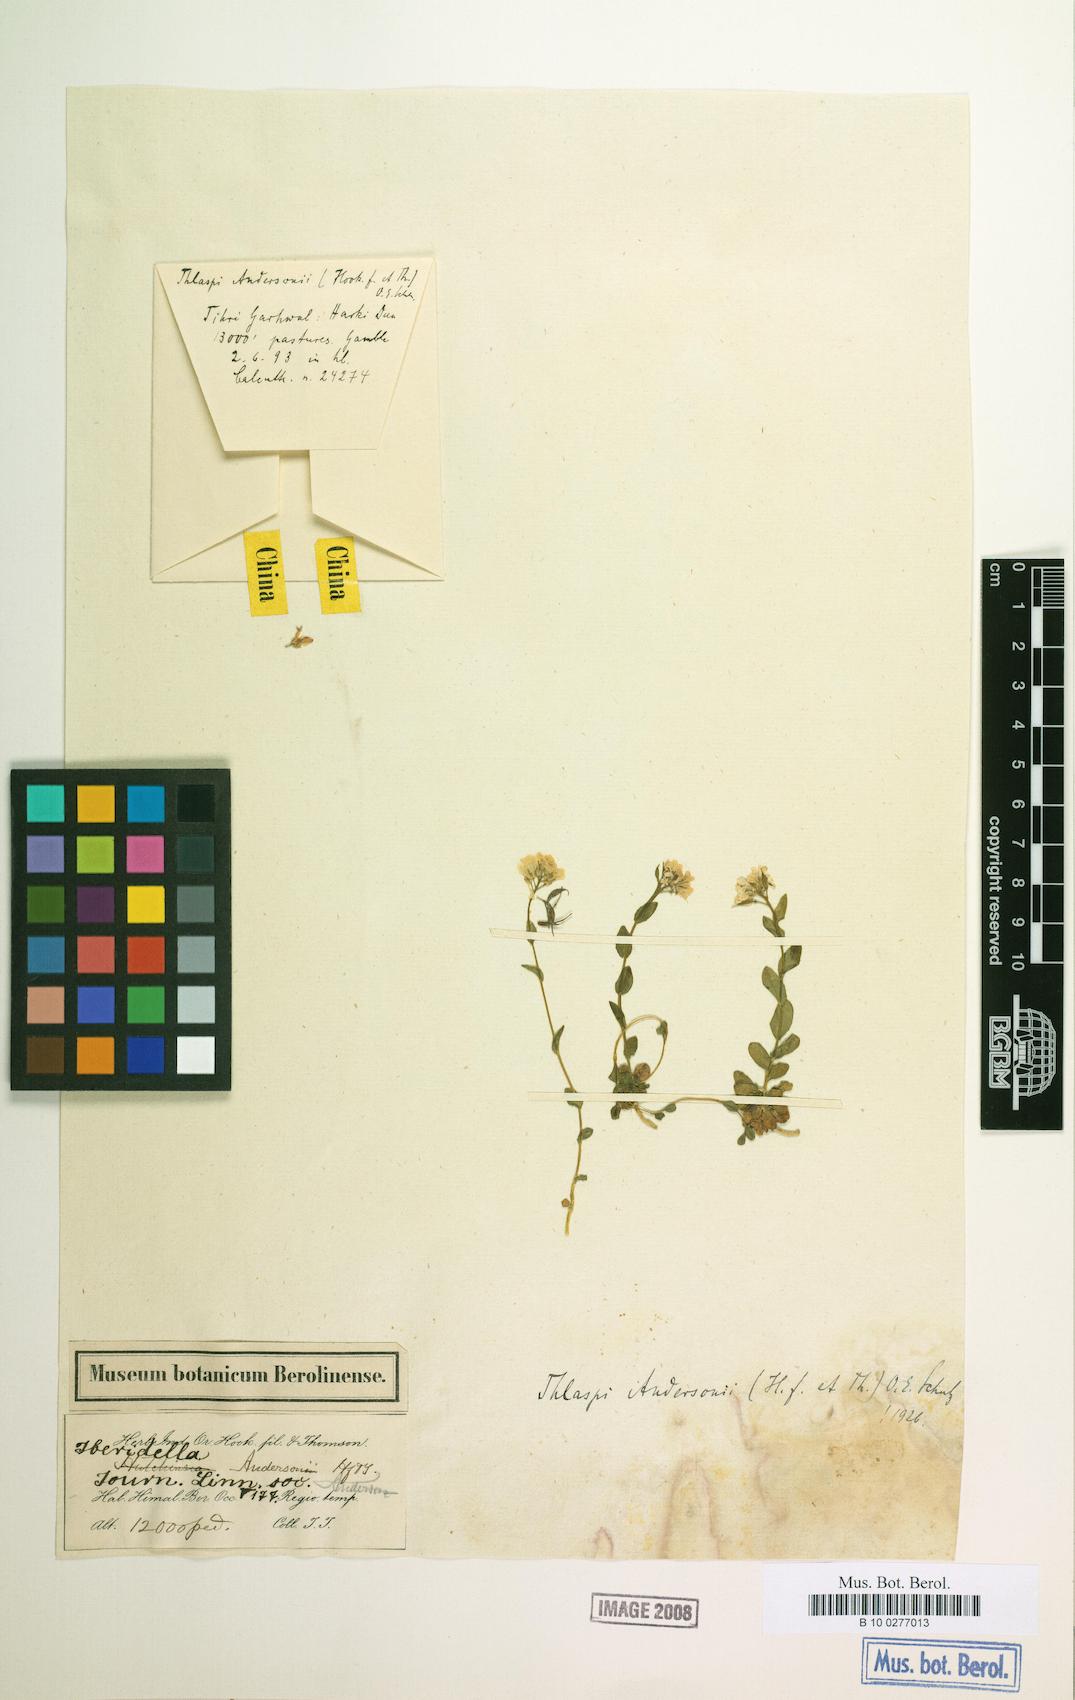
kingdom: Plantae
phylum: Tracheophyta
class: Magnoliopsida
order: Brassicales
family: Brassicaceae
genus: Noccaea
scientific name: Noccaea andersonii
